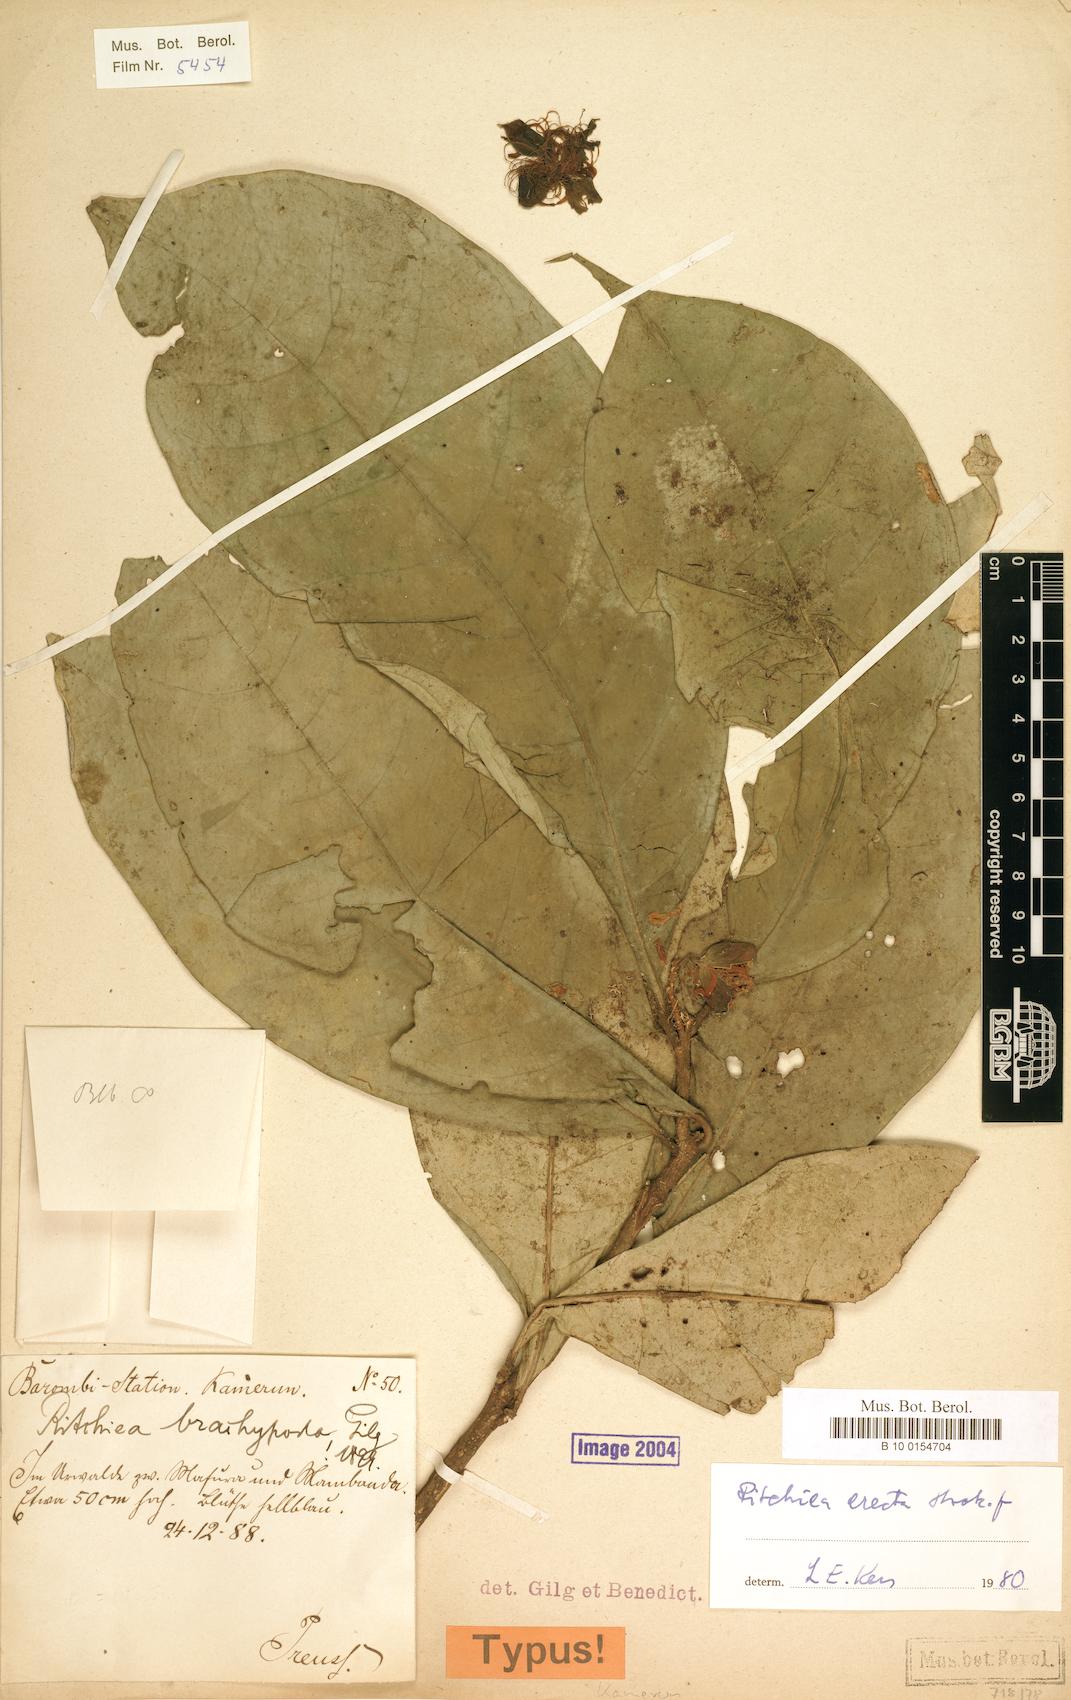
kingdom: Plantae
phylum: Tracheophyta
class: Magnoliopsida
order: Brassicales
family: Capparaceae
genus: Ritchiea
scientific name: Ritchiea erecta
